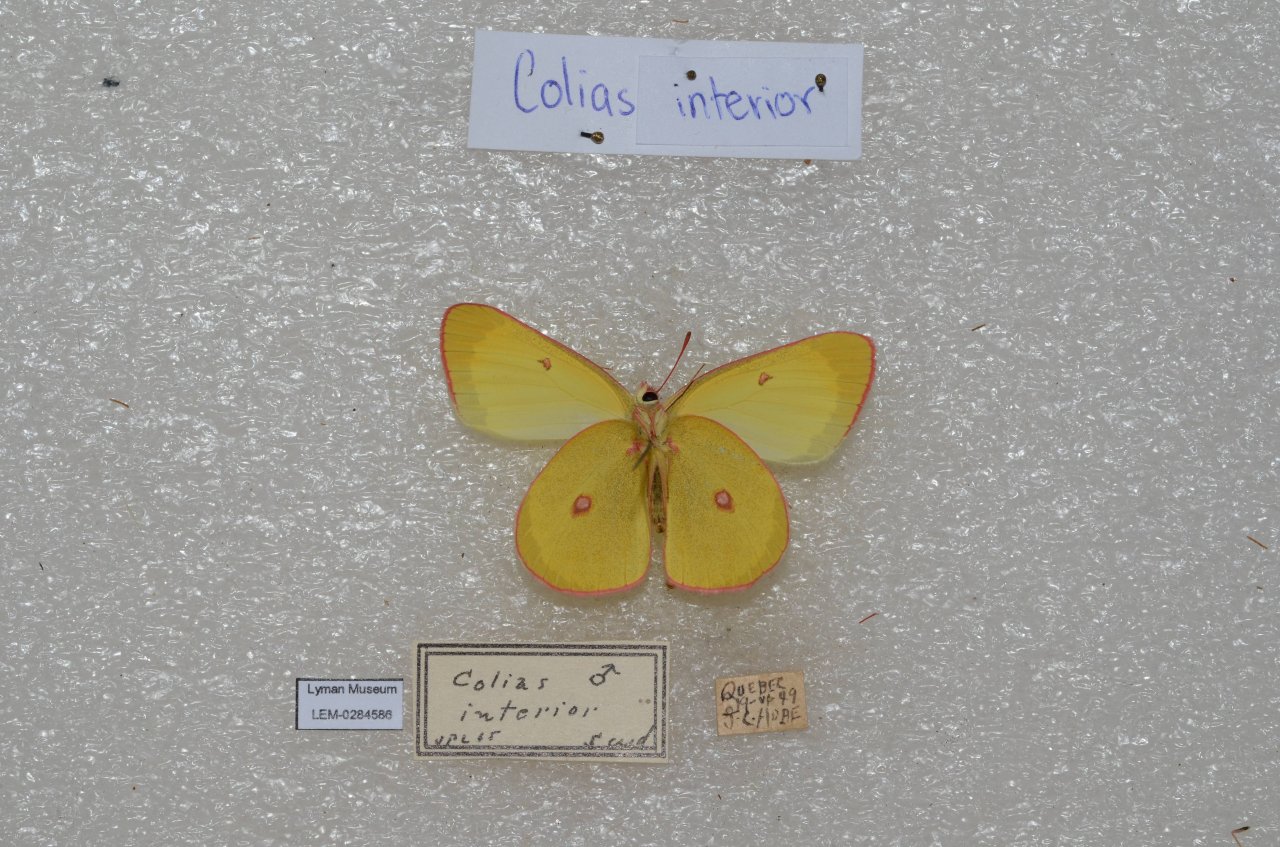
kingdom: Animalia
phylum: Arthropoda
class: Insecta
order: Lepidoptera
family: Pieridae
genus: Colias
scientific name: Colias interior
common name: Pink-edged Sulphur
